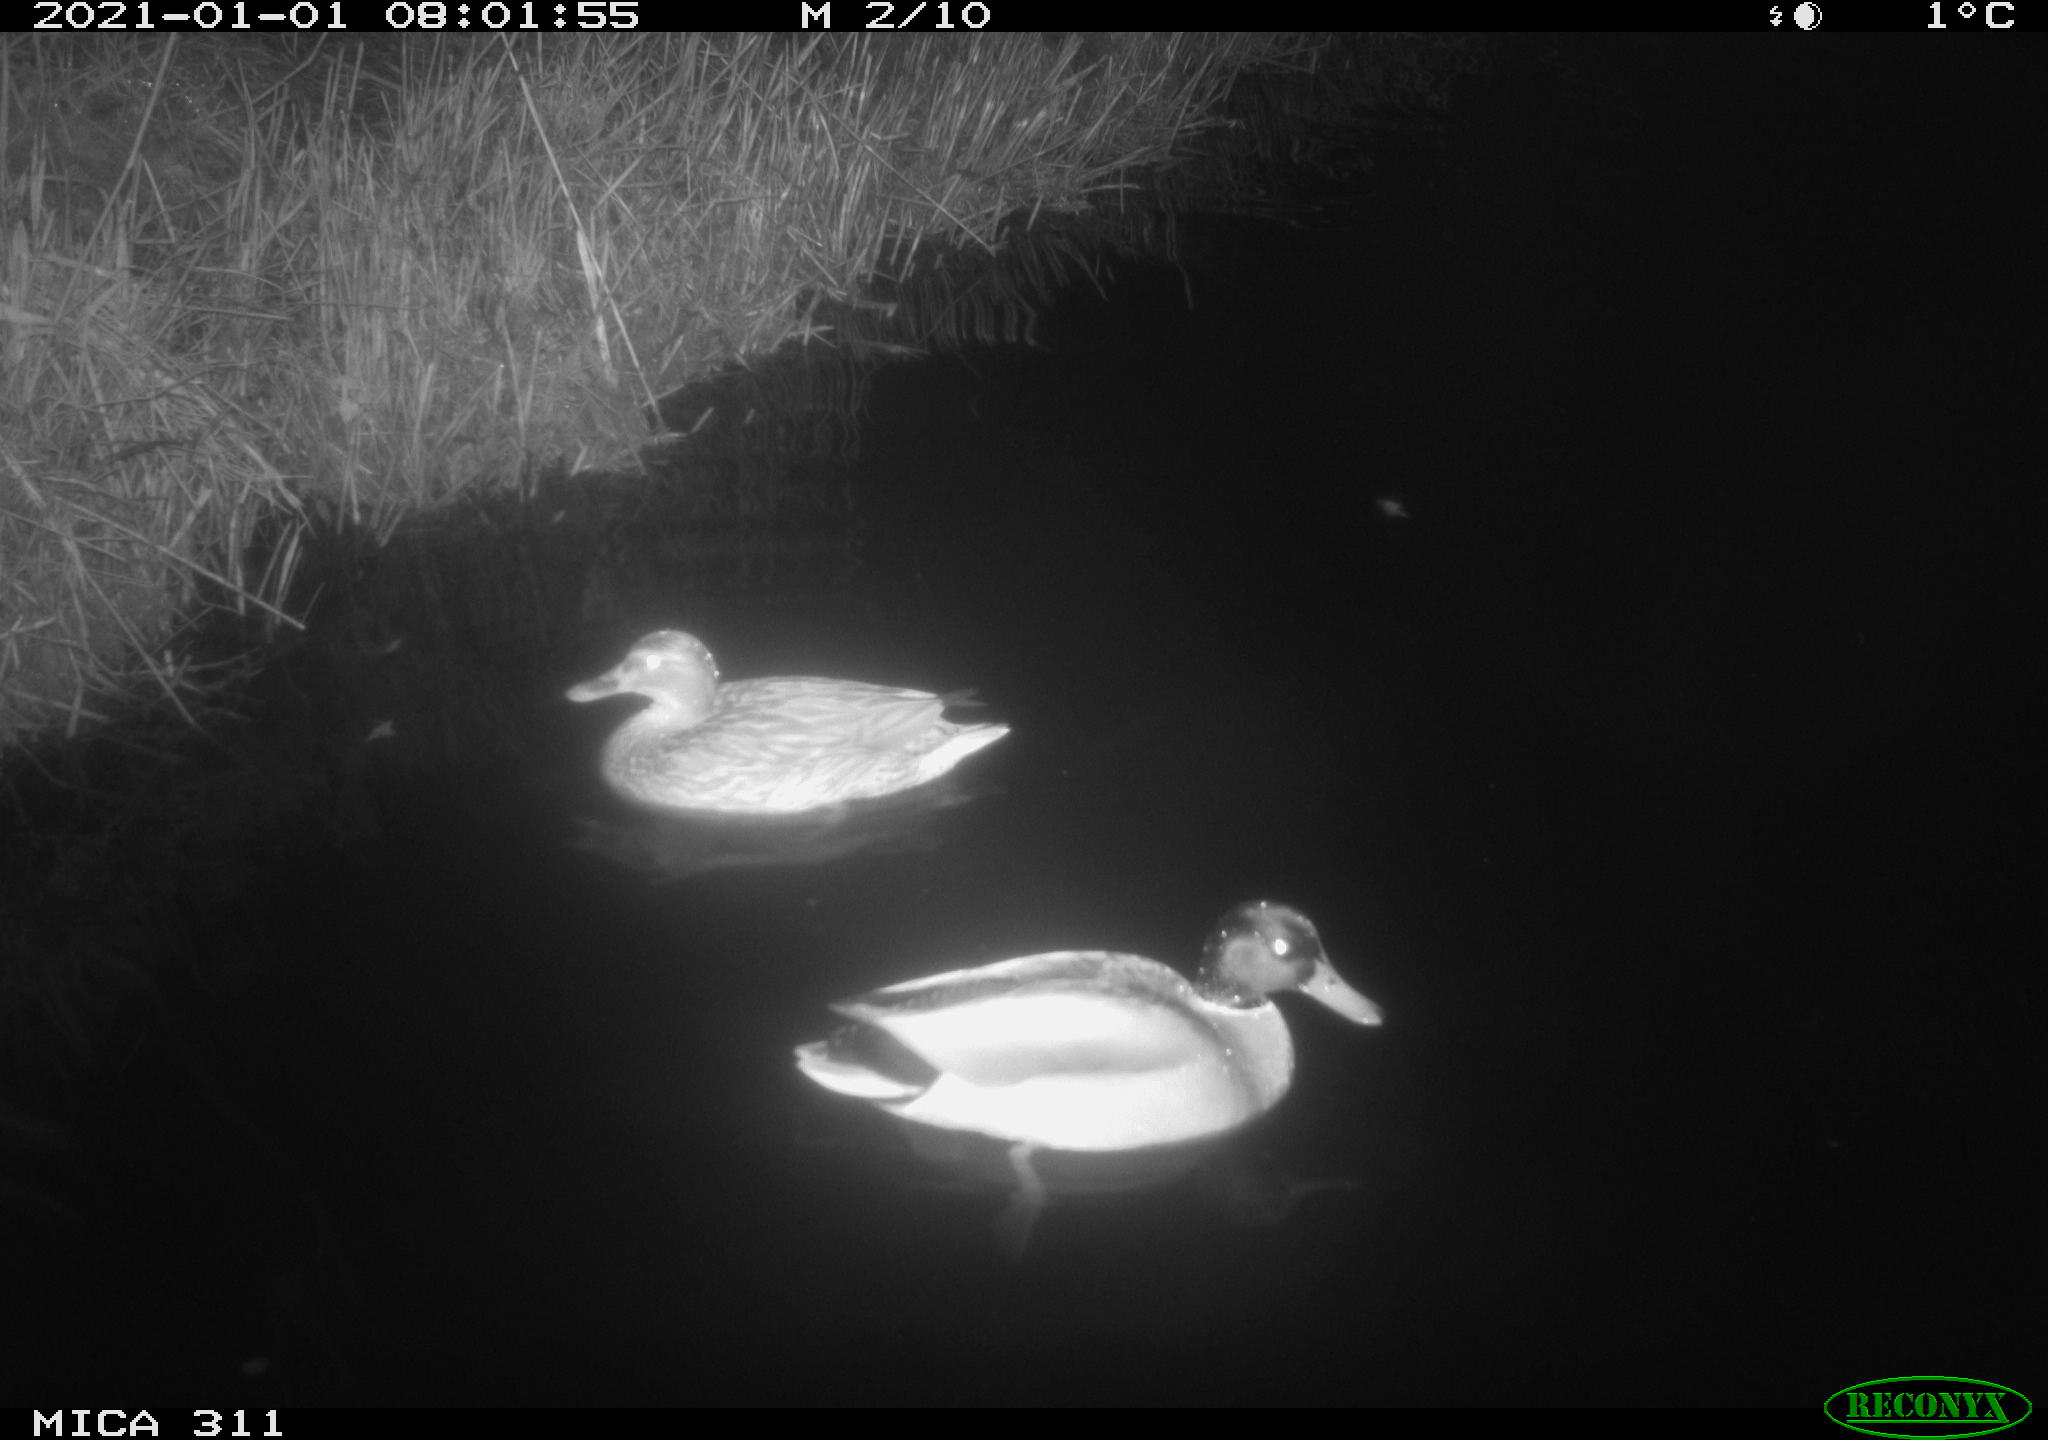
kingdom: Animalia
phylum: Chordata
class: Aves
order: Anseriformes
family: Anatidae
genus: Anas
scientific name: Anas platyrhynchos
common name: Mallard
